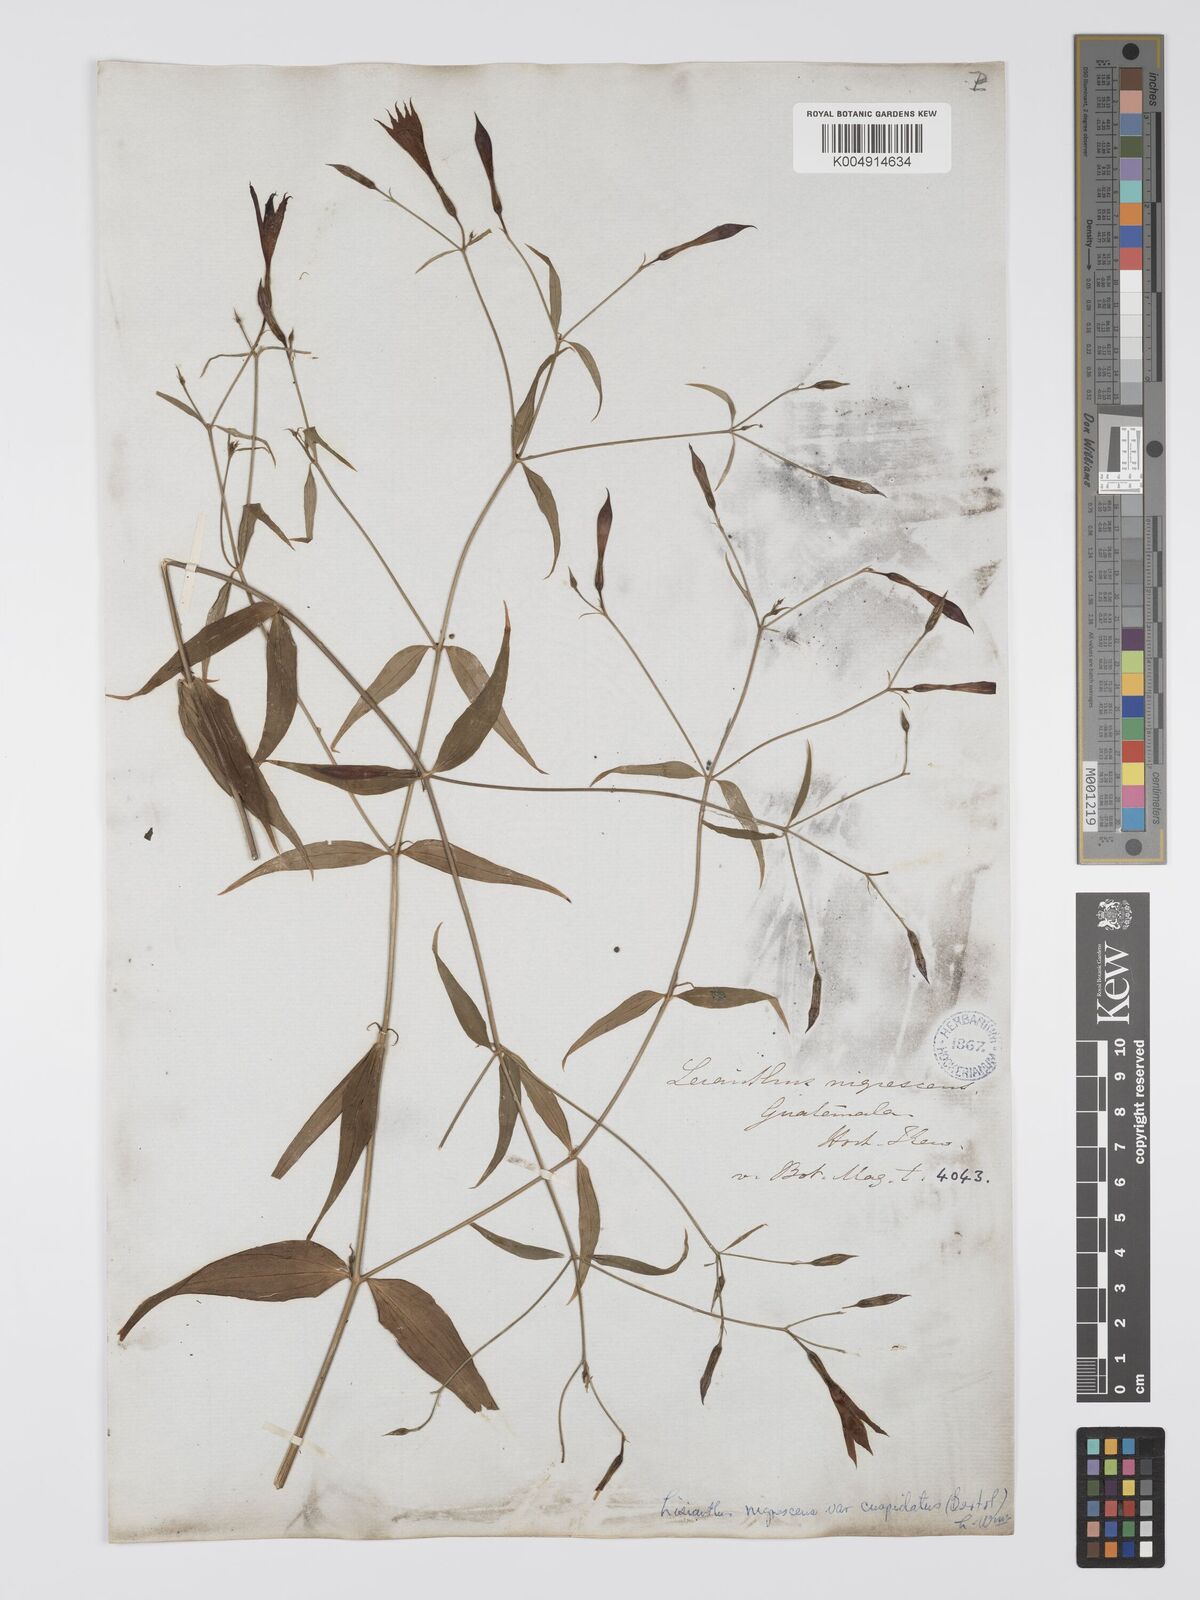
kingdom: Plantae
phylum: Tracheophyta
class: Magnoliopsida
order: Gentianales
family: Gentianaceae
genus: Lisianthius
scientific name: Lisianthius cuspidatus
